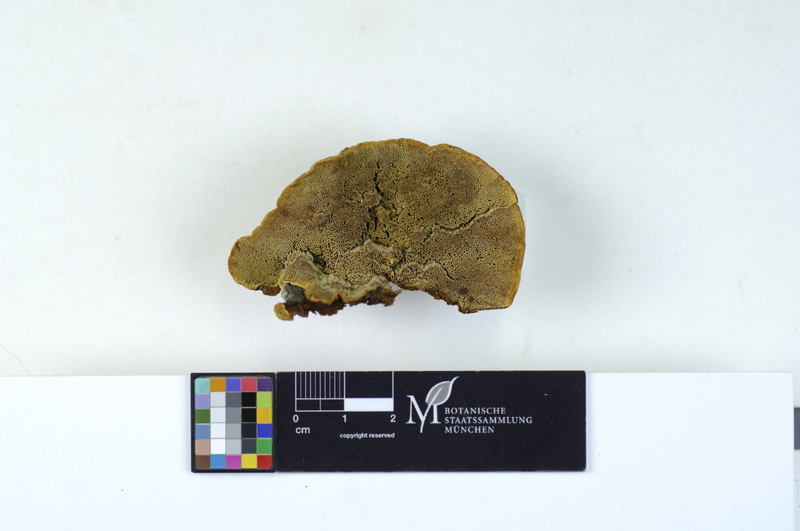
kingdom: Plantae
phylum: Tracheophyta
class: Pinopsida
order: Pinales
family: Pinaceae
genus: Picea
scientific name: Picea
